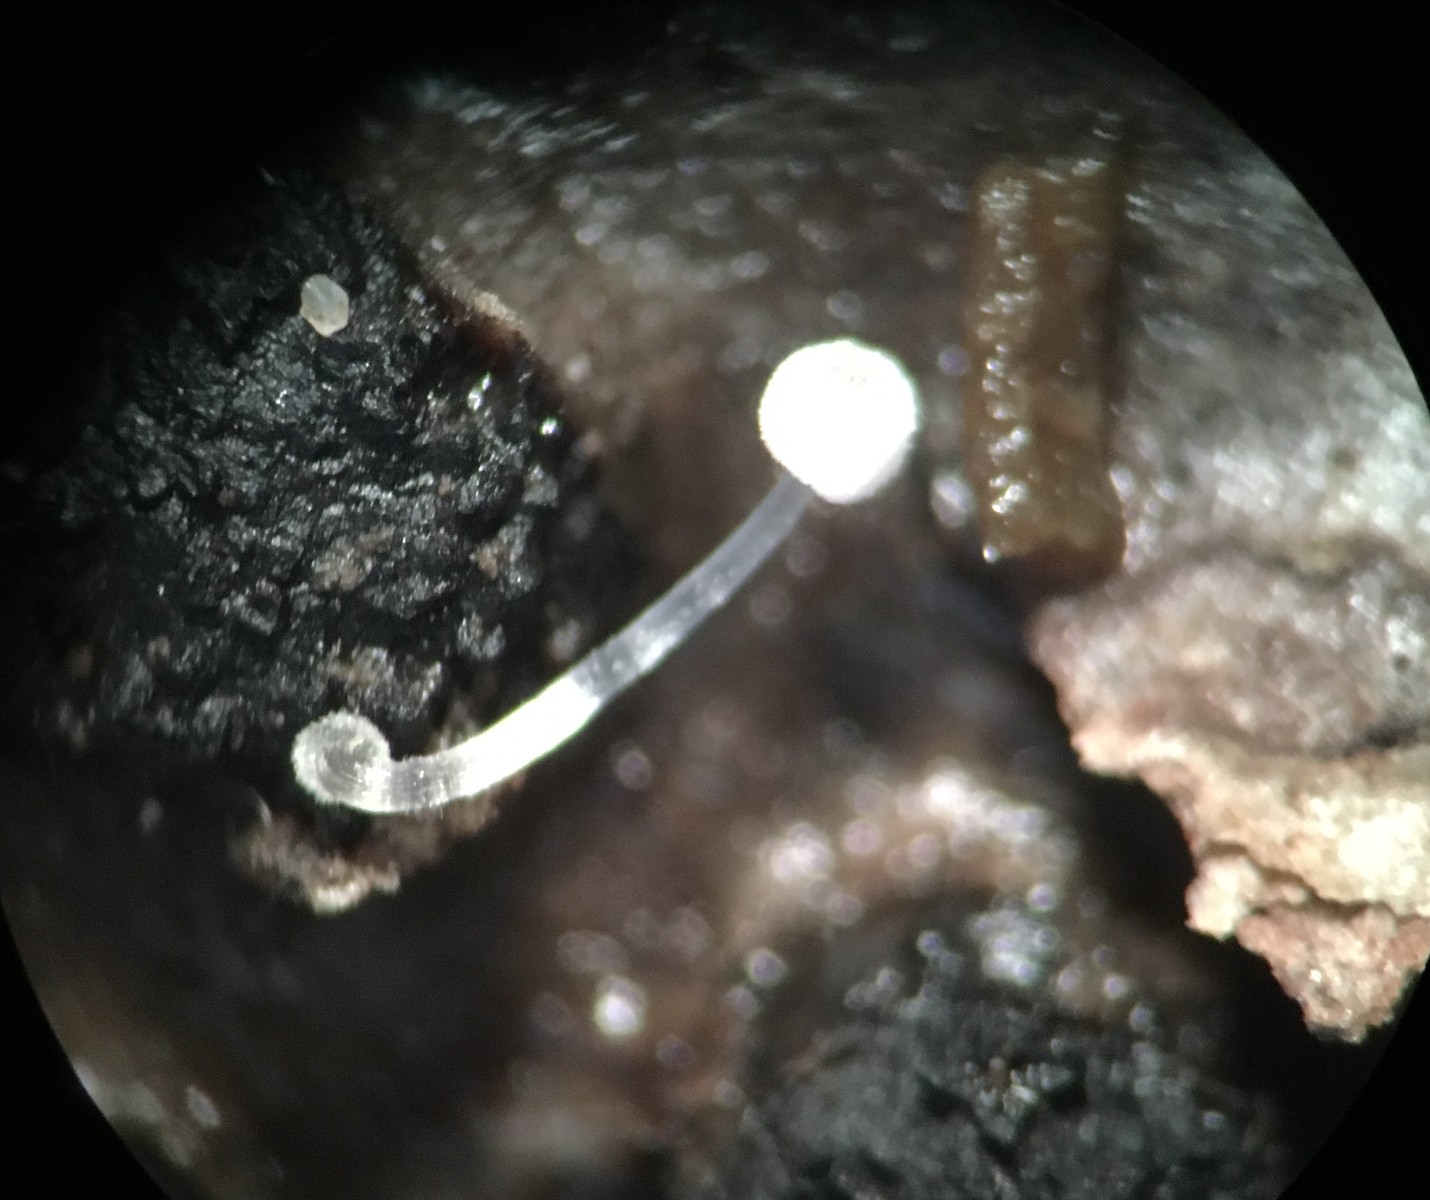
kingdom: Fungi
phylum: Basidiomycota
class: Agaricomycetes
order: Agaricales
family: Mycenaceae
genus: Mycena
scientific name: Mycena tenerrima
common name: pudret huesvamp
